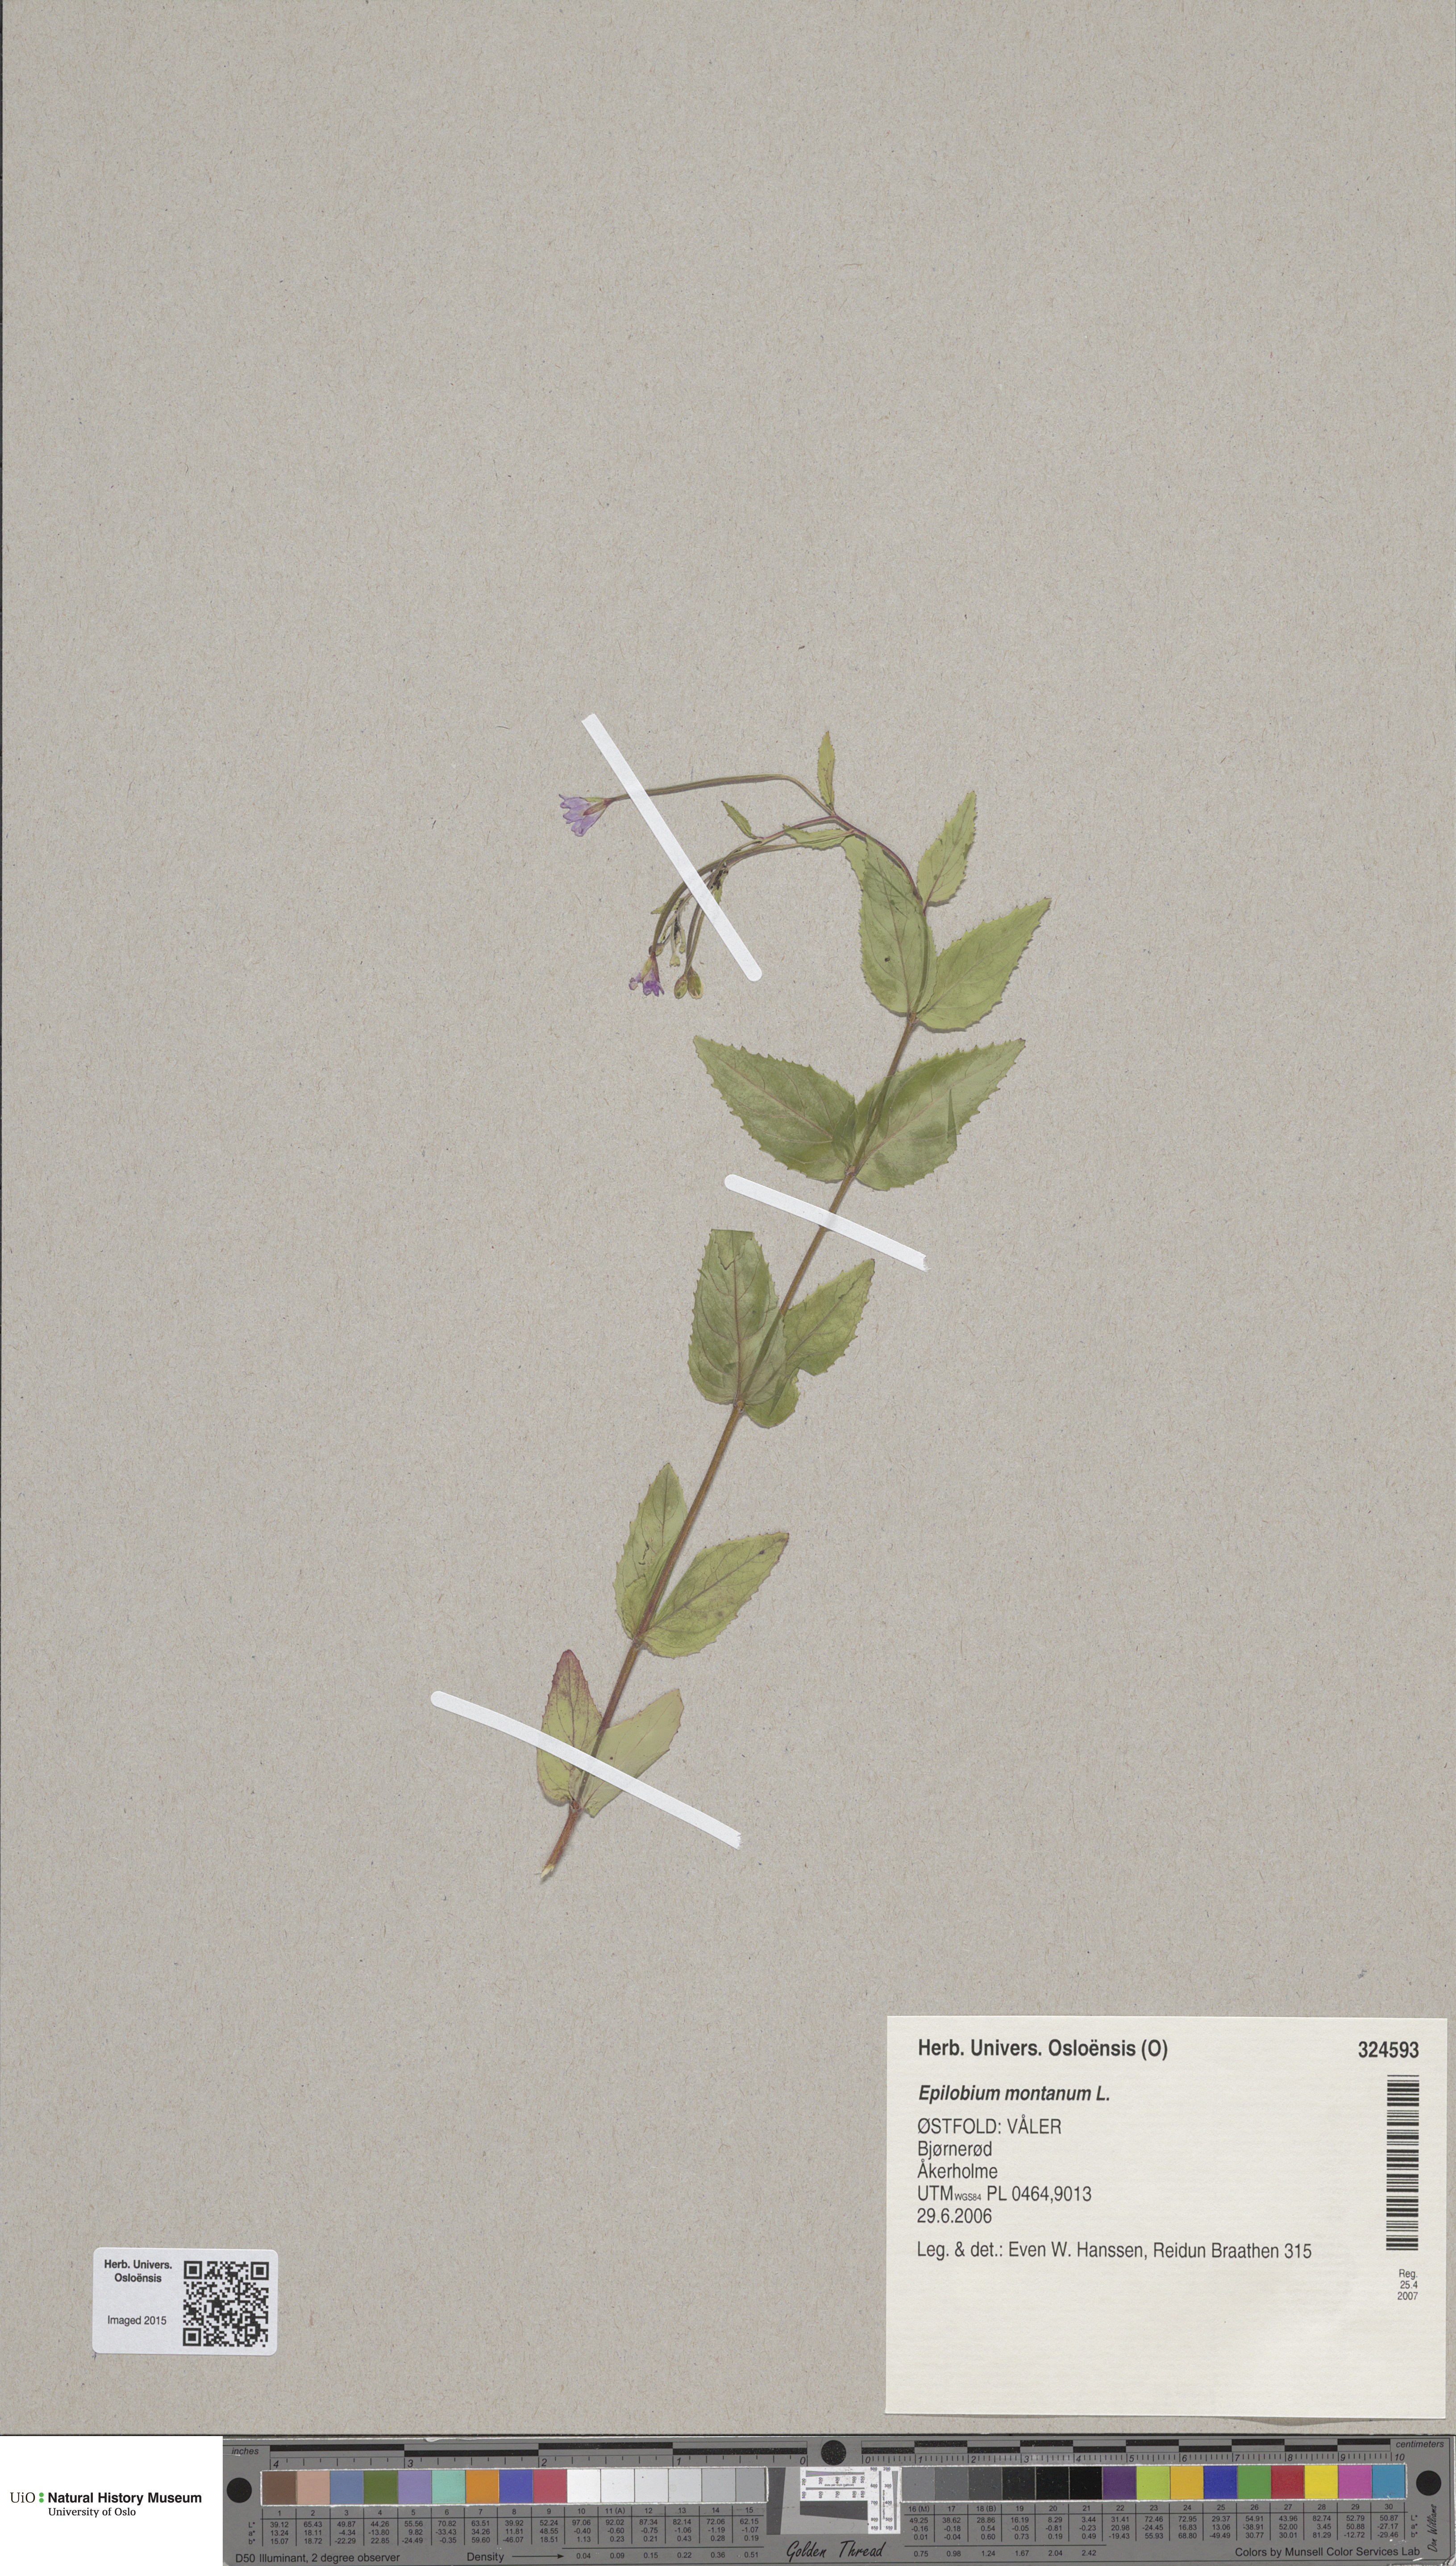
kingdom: Plantae
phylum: Tracheophyta
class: Magnoliopsida
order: Myrtales
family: Onagraceae
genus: Epilobium
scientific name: Epilobium montanum
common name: Broad-leaved willowherb
